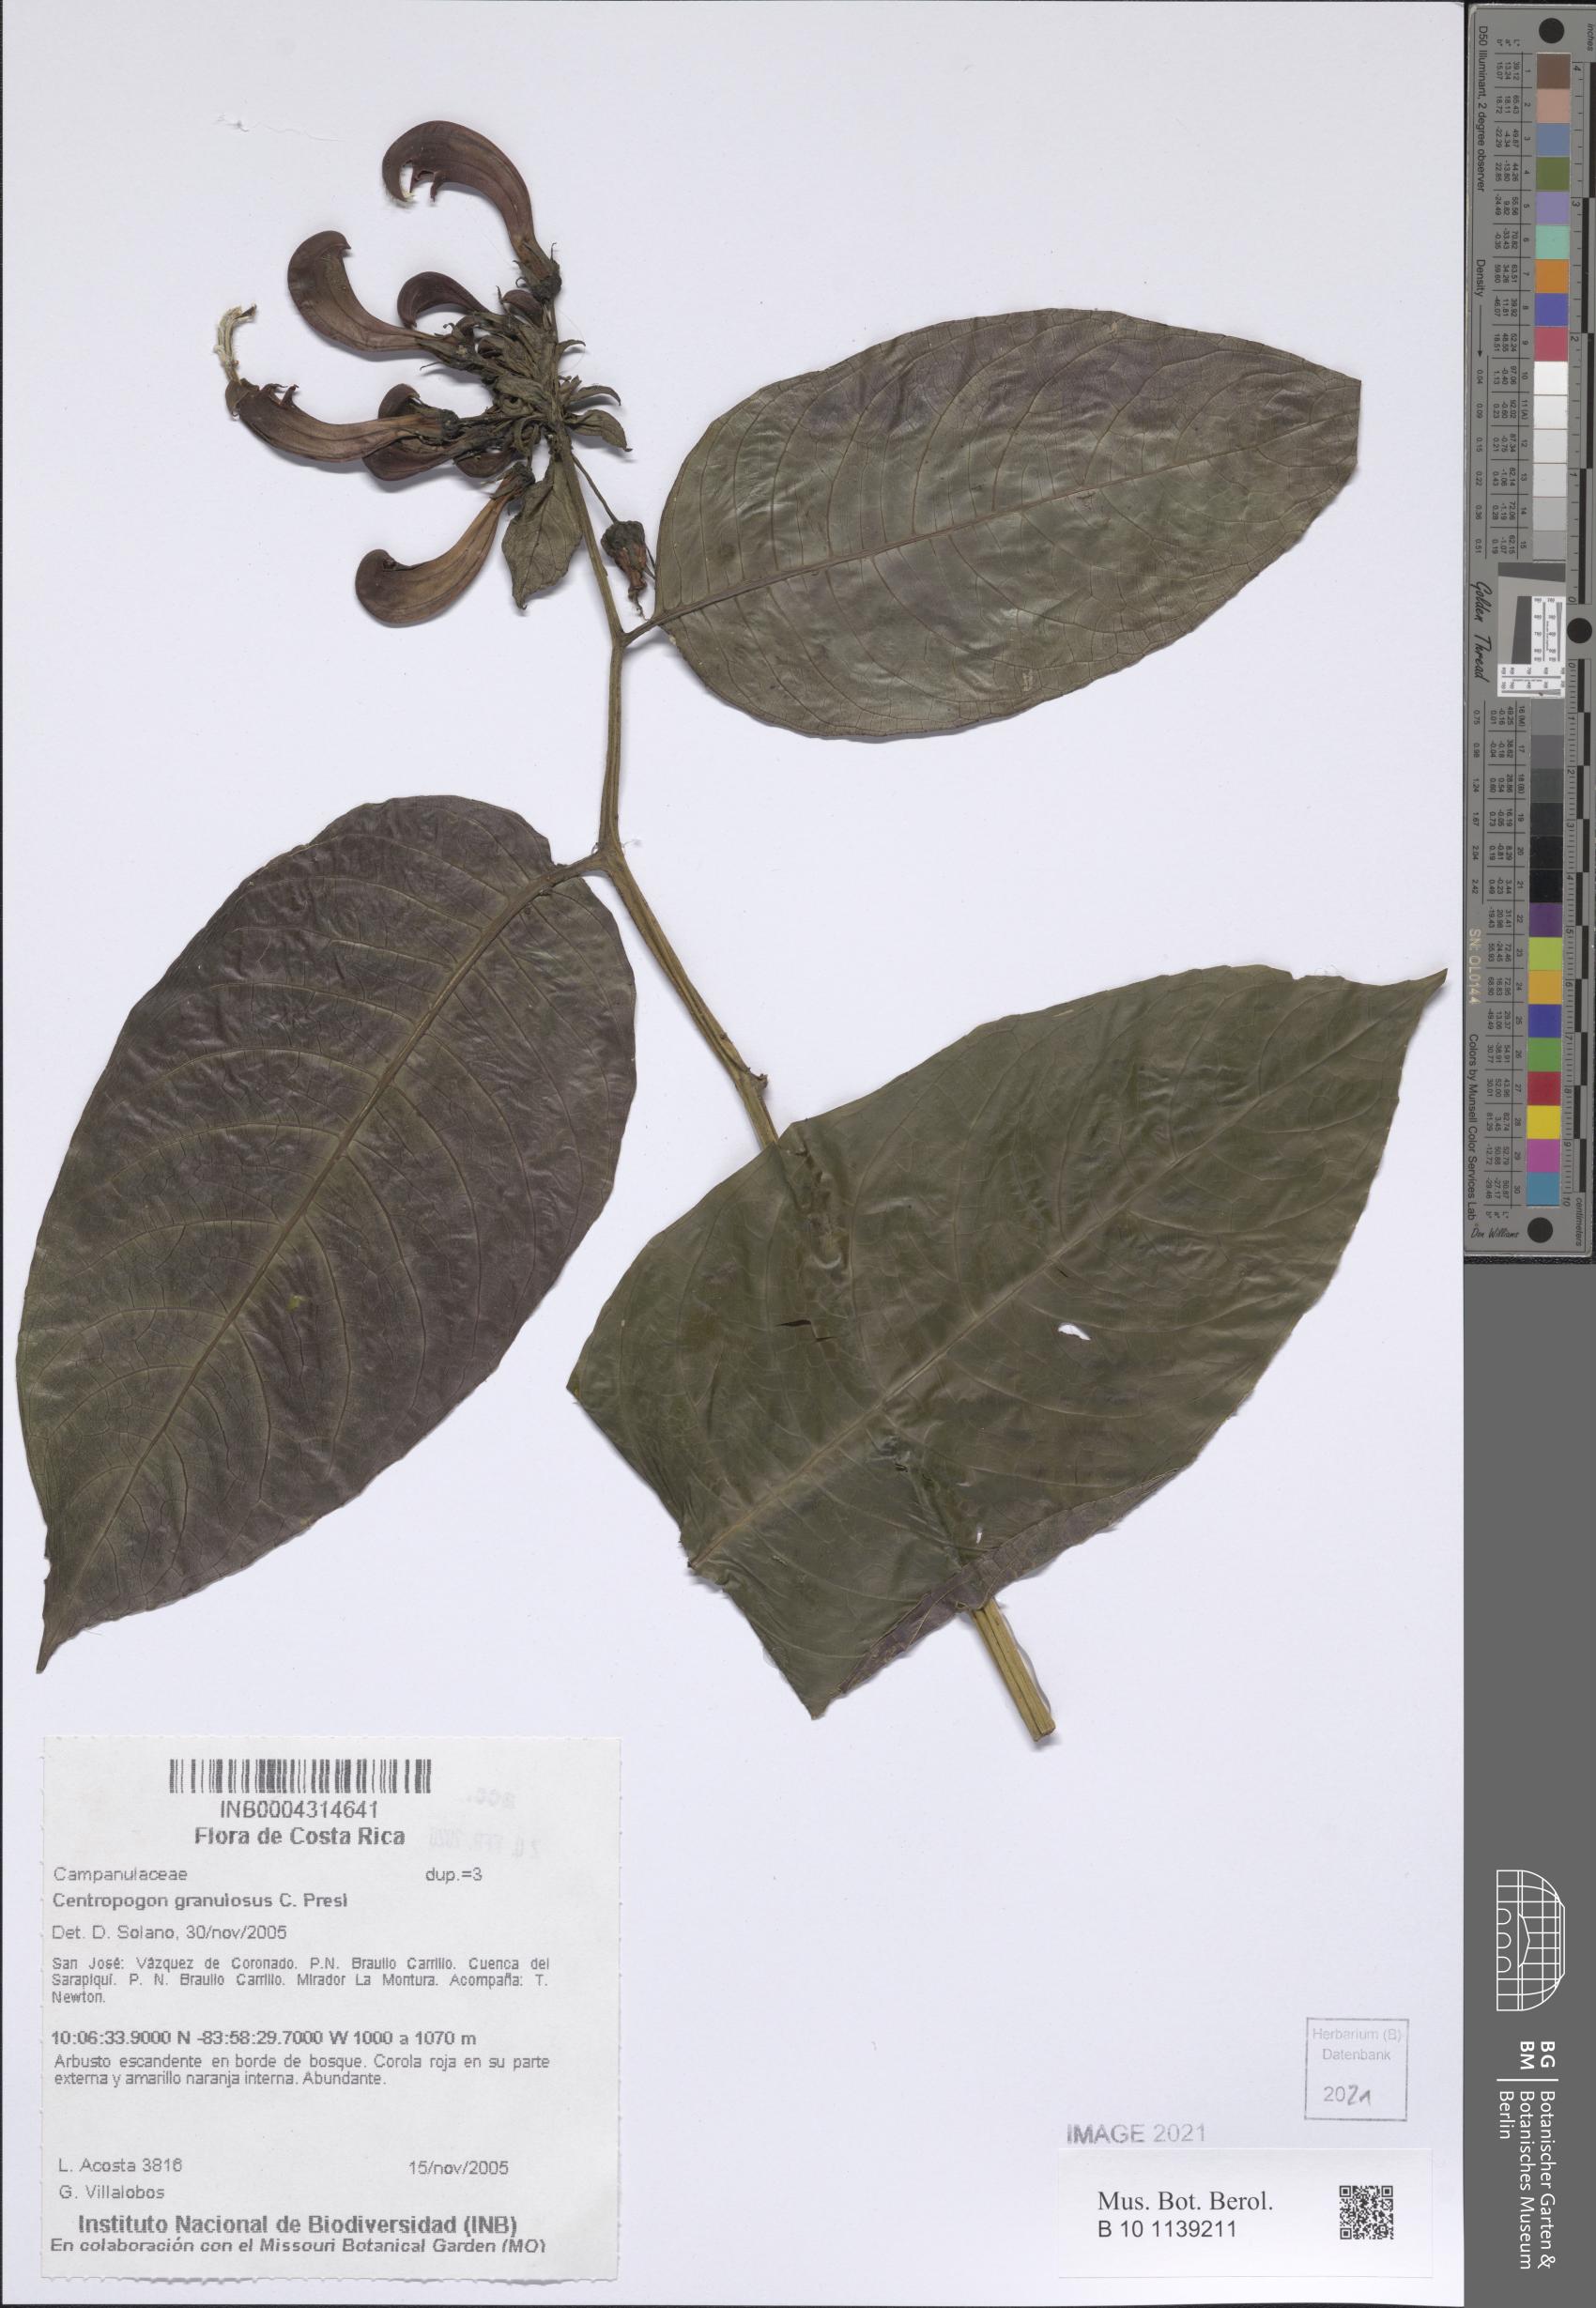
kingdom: Plantae
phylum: Tracheophyta
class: Magnoliopsida
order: Asterales
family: Campanulaceae
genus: Centropogon
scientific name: Centropogon granulosus
